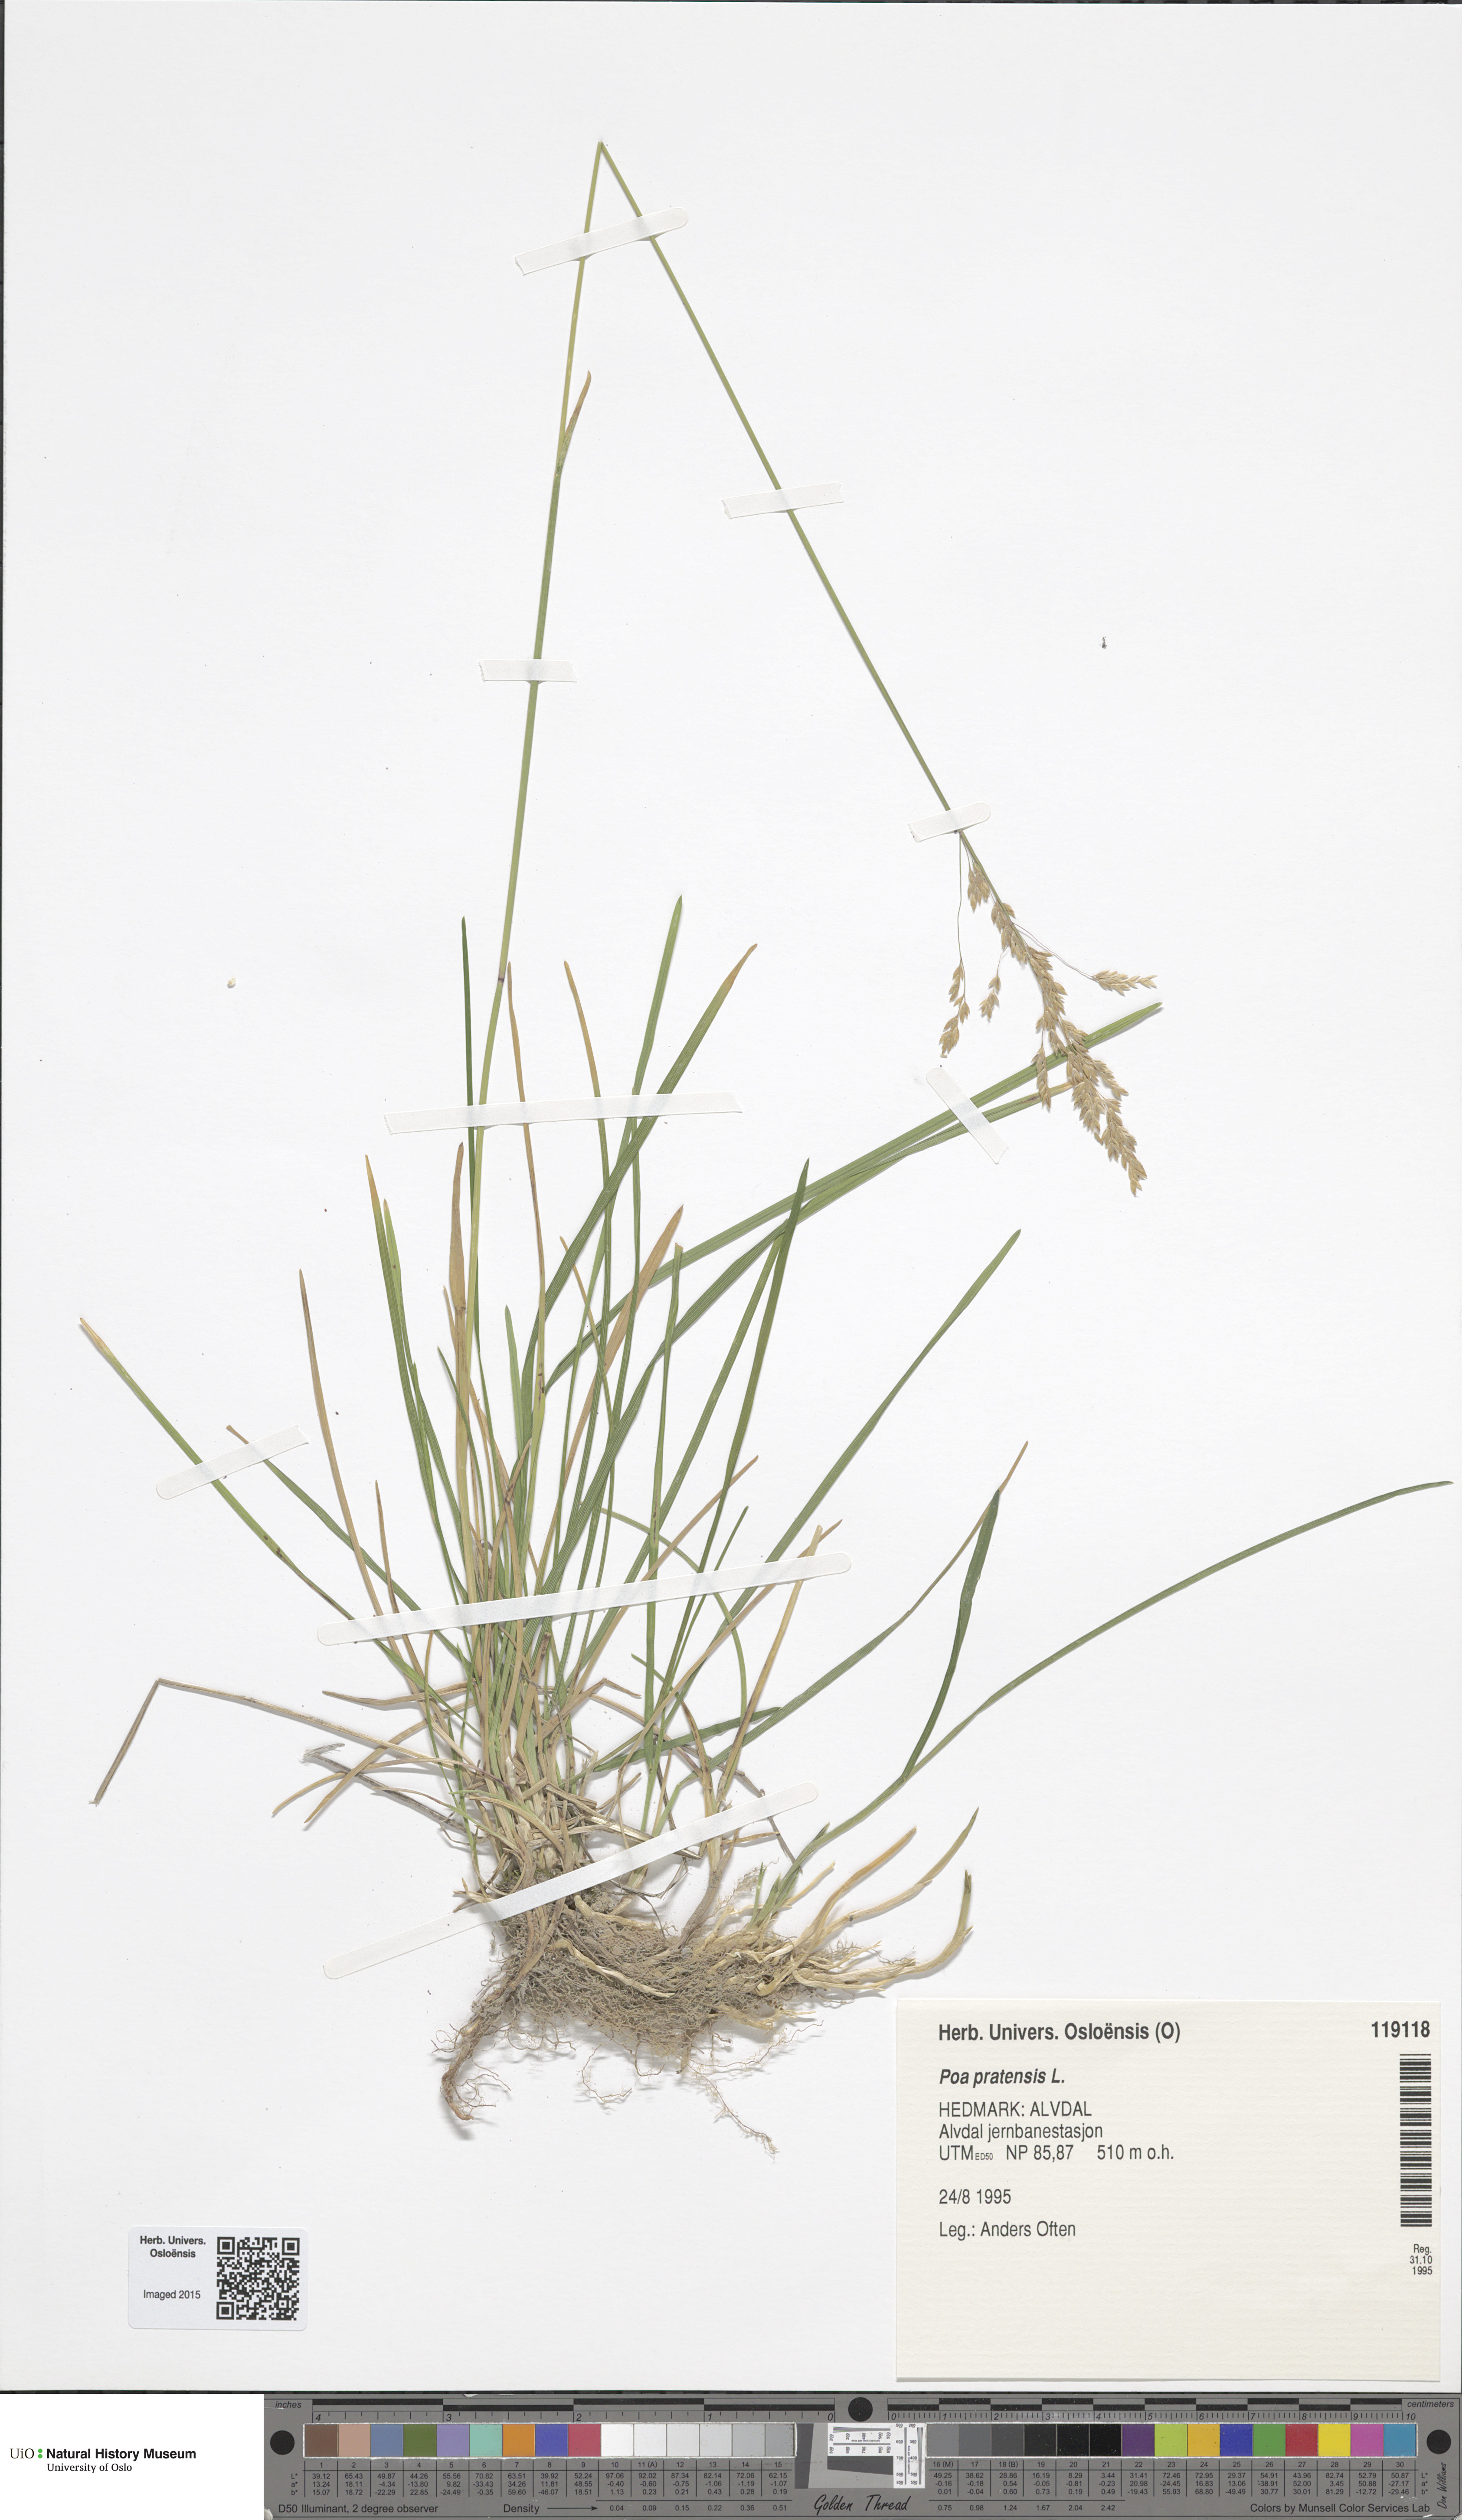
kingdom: Plantae
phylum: Tracheophyta
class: Liliopsida
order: Poales
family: Poaceae
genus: Poa
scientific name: Poa pratensis
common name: Kentucky bluegrass
